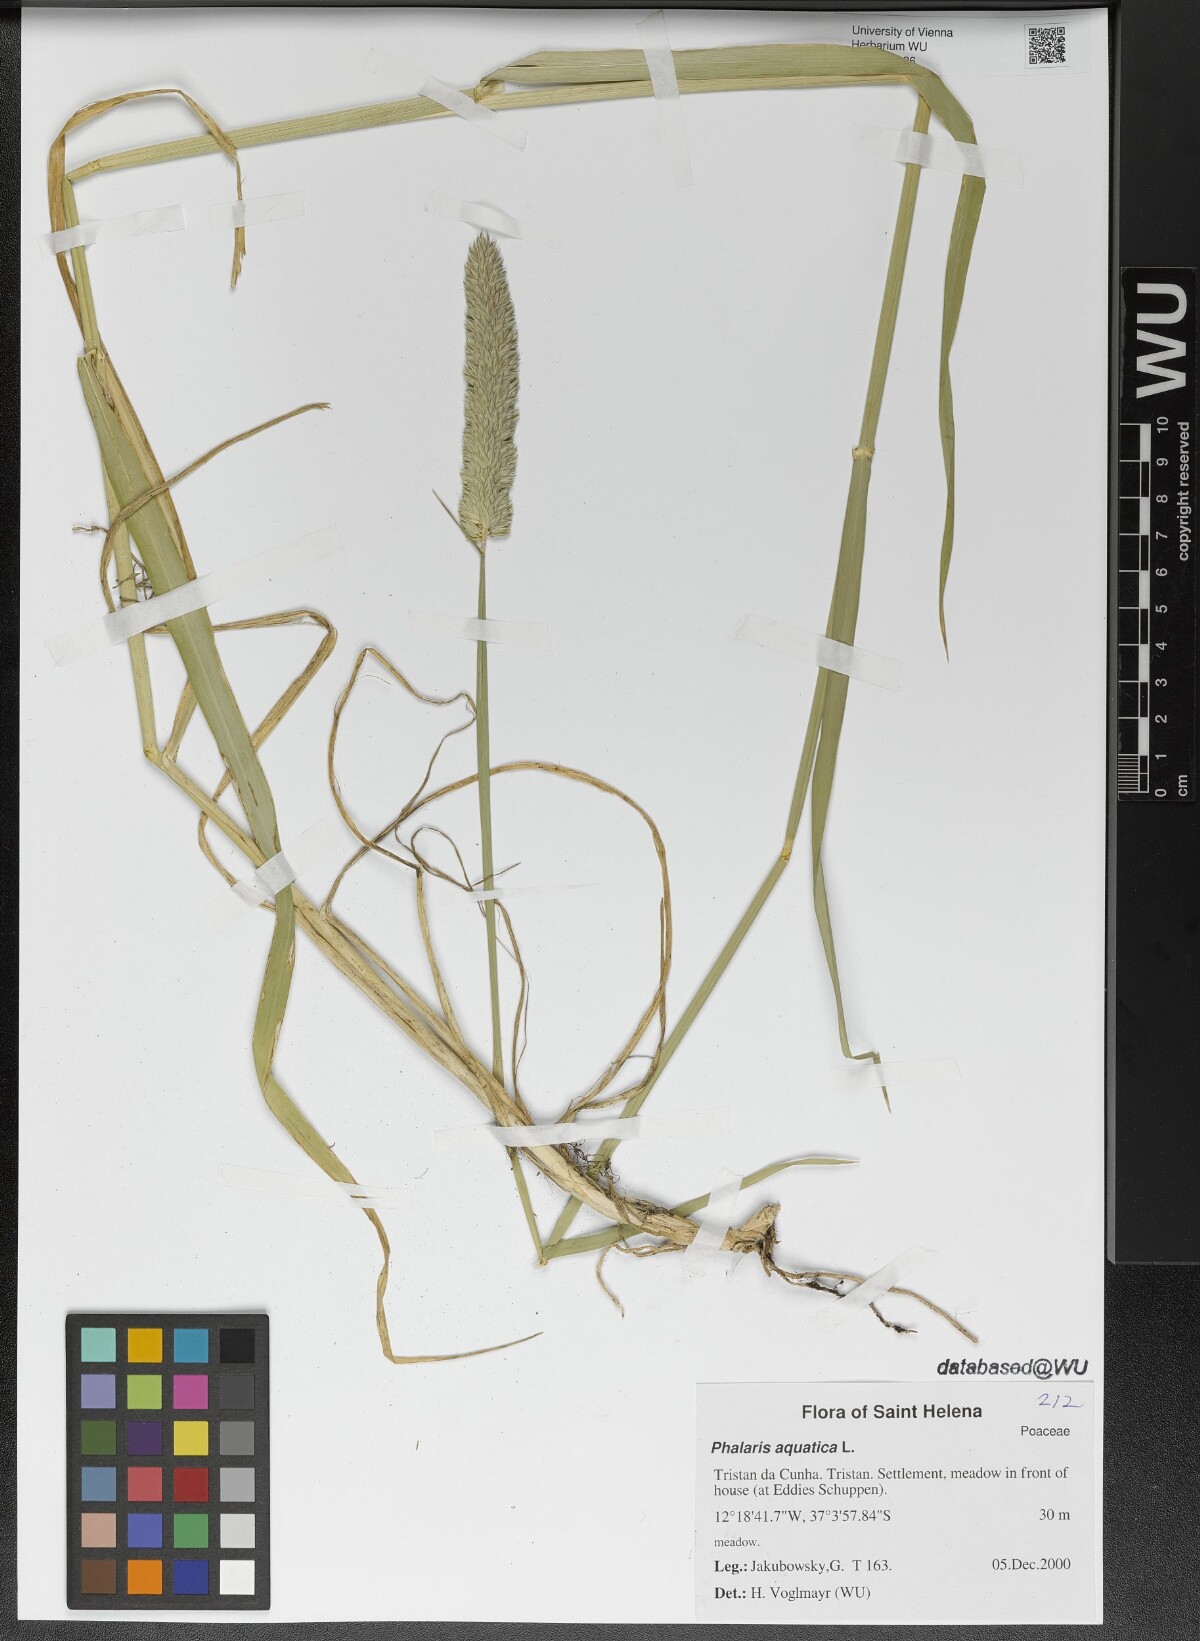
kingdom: Plantae
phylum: Tracheophyta
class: Liliopsida
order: Poales
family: Poaceae
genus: Phalaris
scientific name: Phalaris aquatica
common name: Bulbous canary-grass
